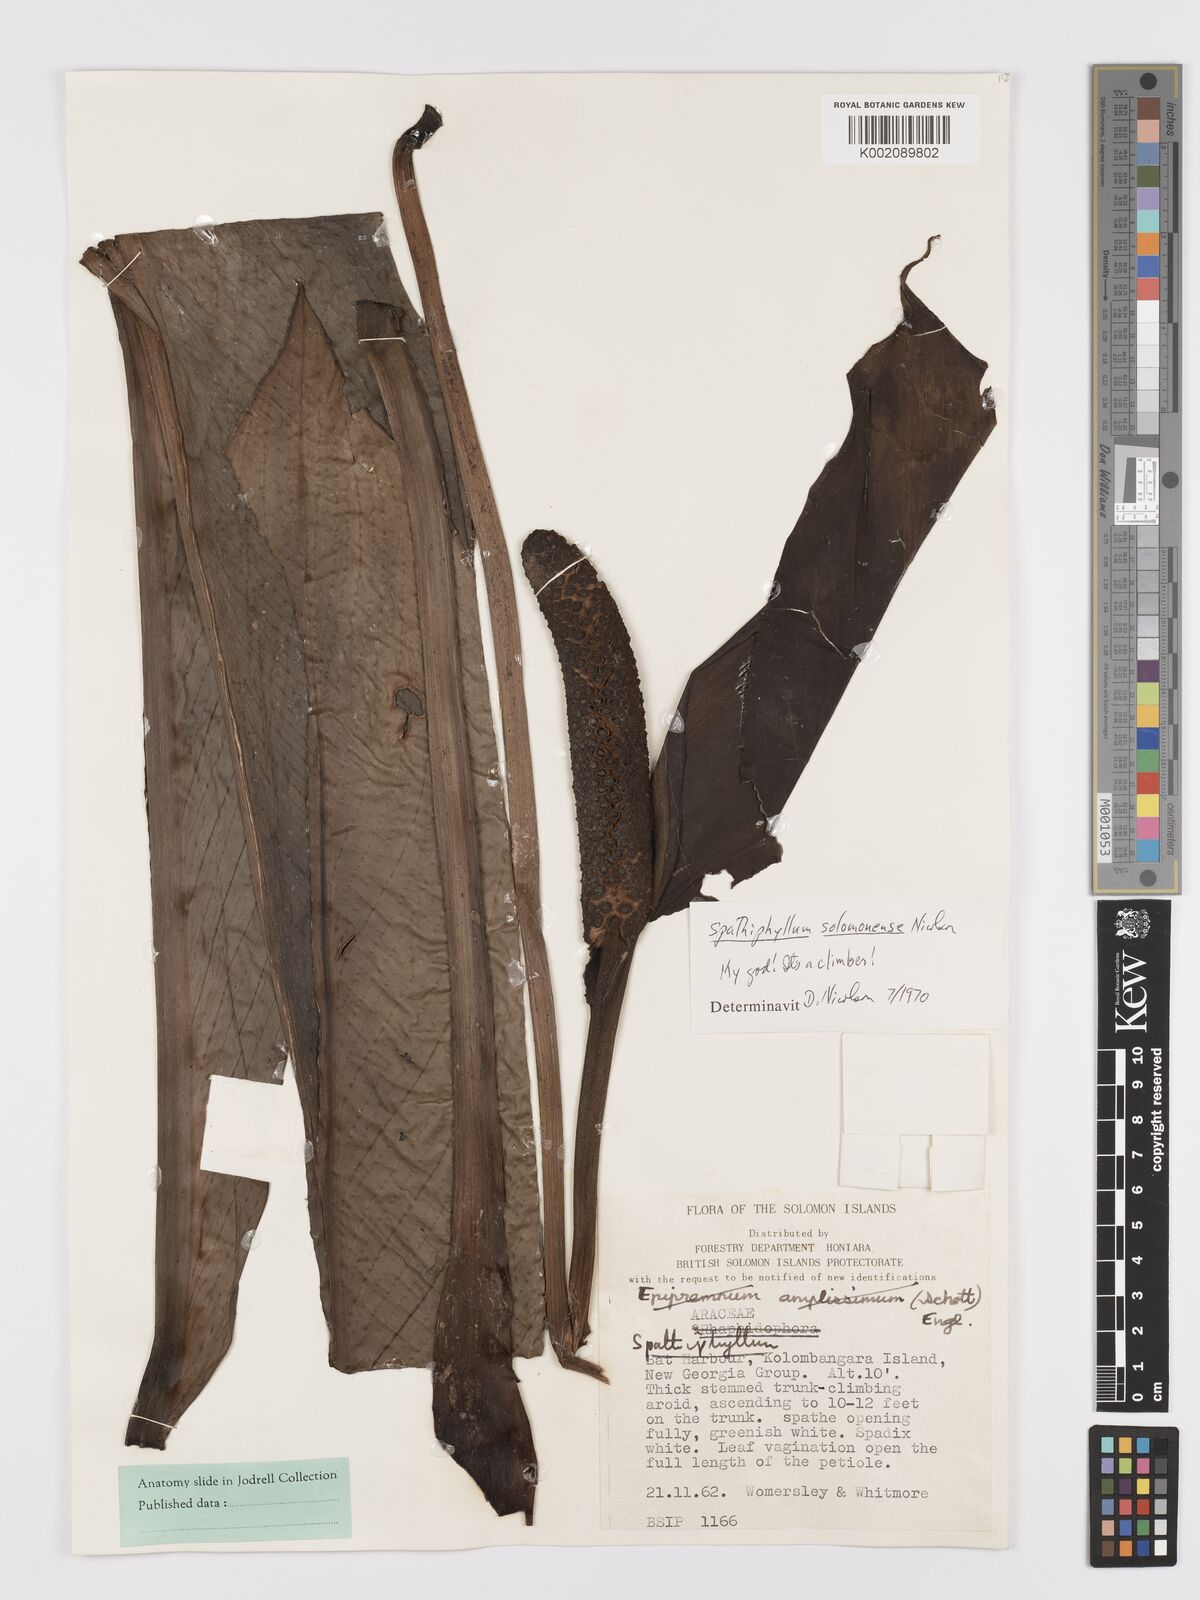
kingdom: Plantae
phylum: Tracheophyta
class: Liliopsida
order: Alismatales
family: Araceae
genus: Spathiphyllum
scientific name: Spathiphyllum solomonense
